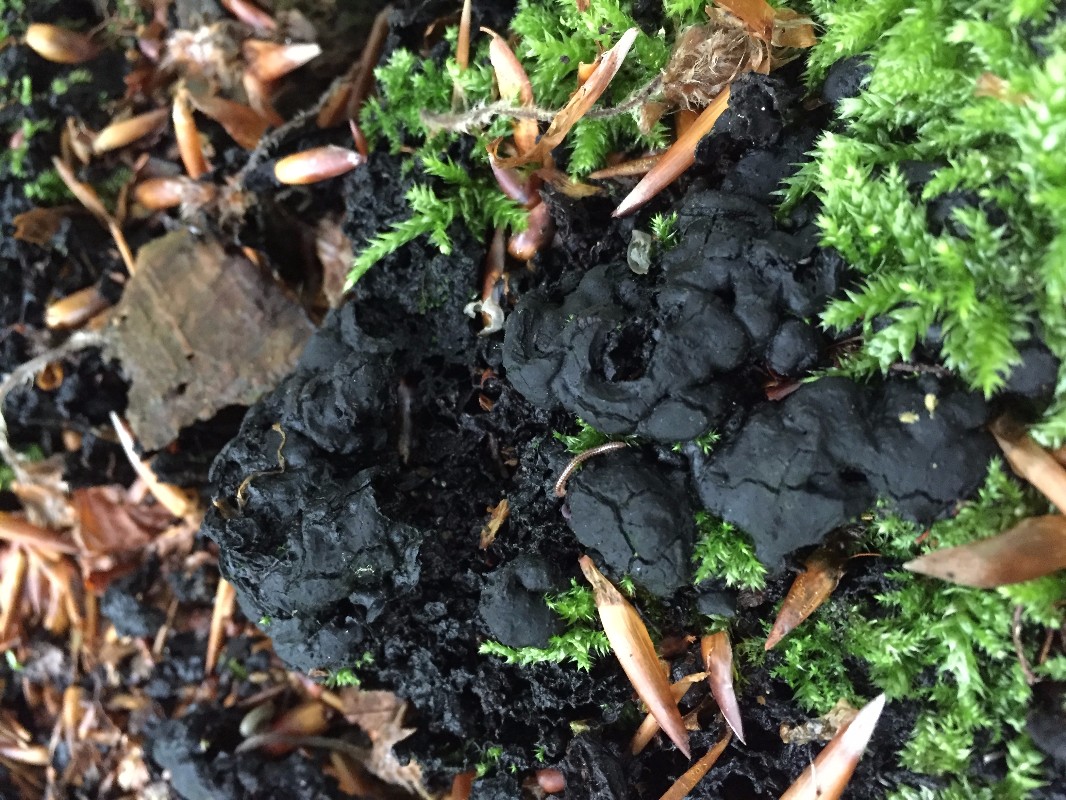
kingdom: Fungi
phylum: Ascomycota
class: Sordariomycetes
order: Xylariales
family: Xylariaceae
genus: Kretzschmaria
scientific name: Kretzschmaria deusta
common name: stor kulsvamp
